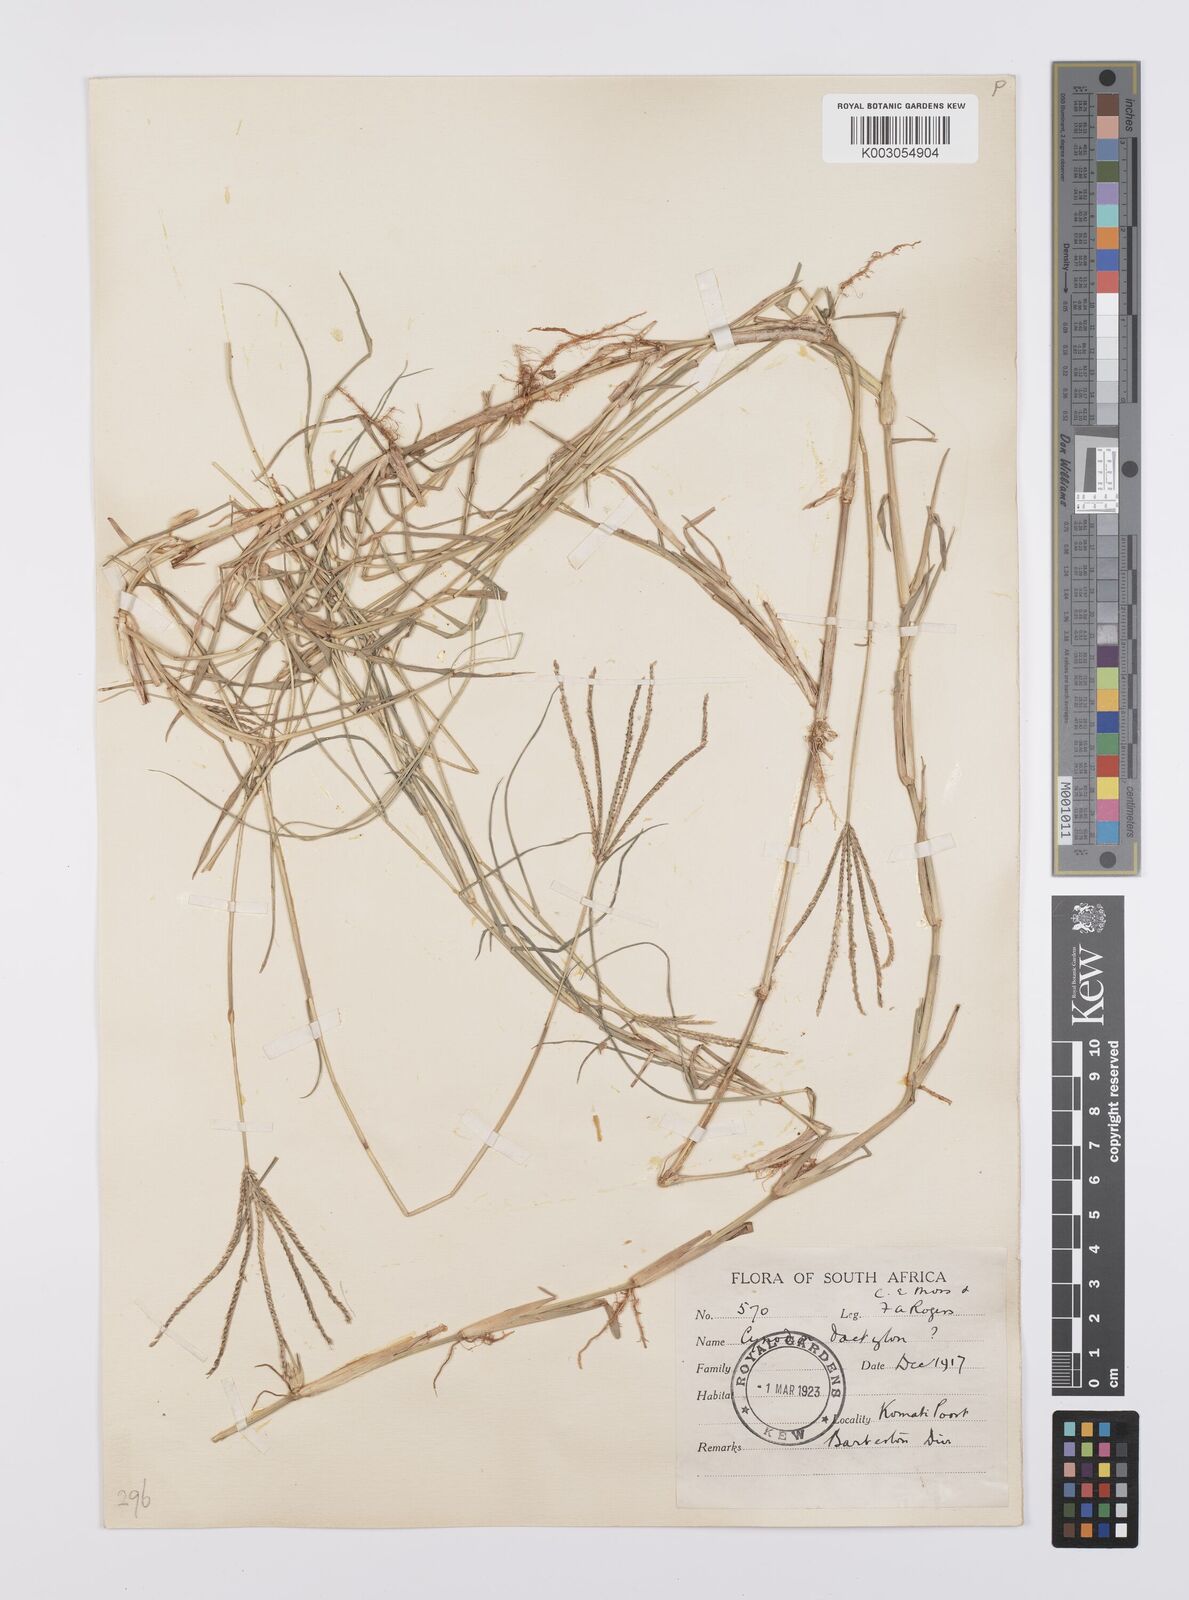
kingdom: Plantae
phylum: Tracheophyta
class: Liliopsida
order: Poales
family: Poaceae
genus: Cynodon
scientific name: Cynodon dactylon
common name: Bermuda grass
